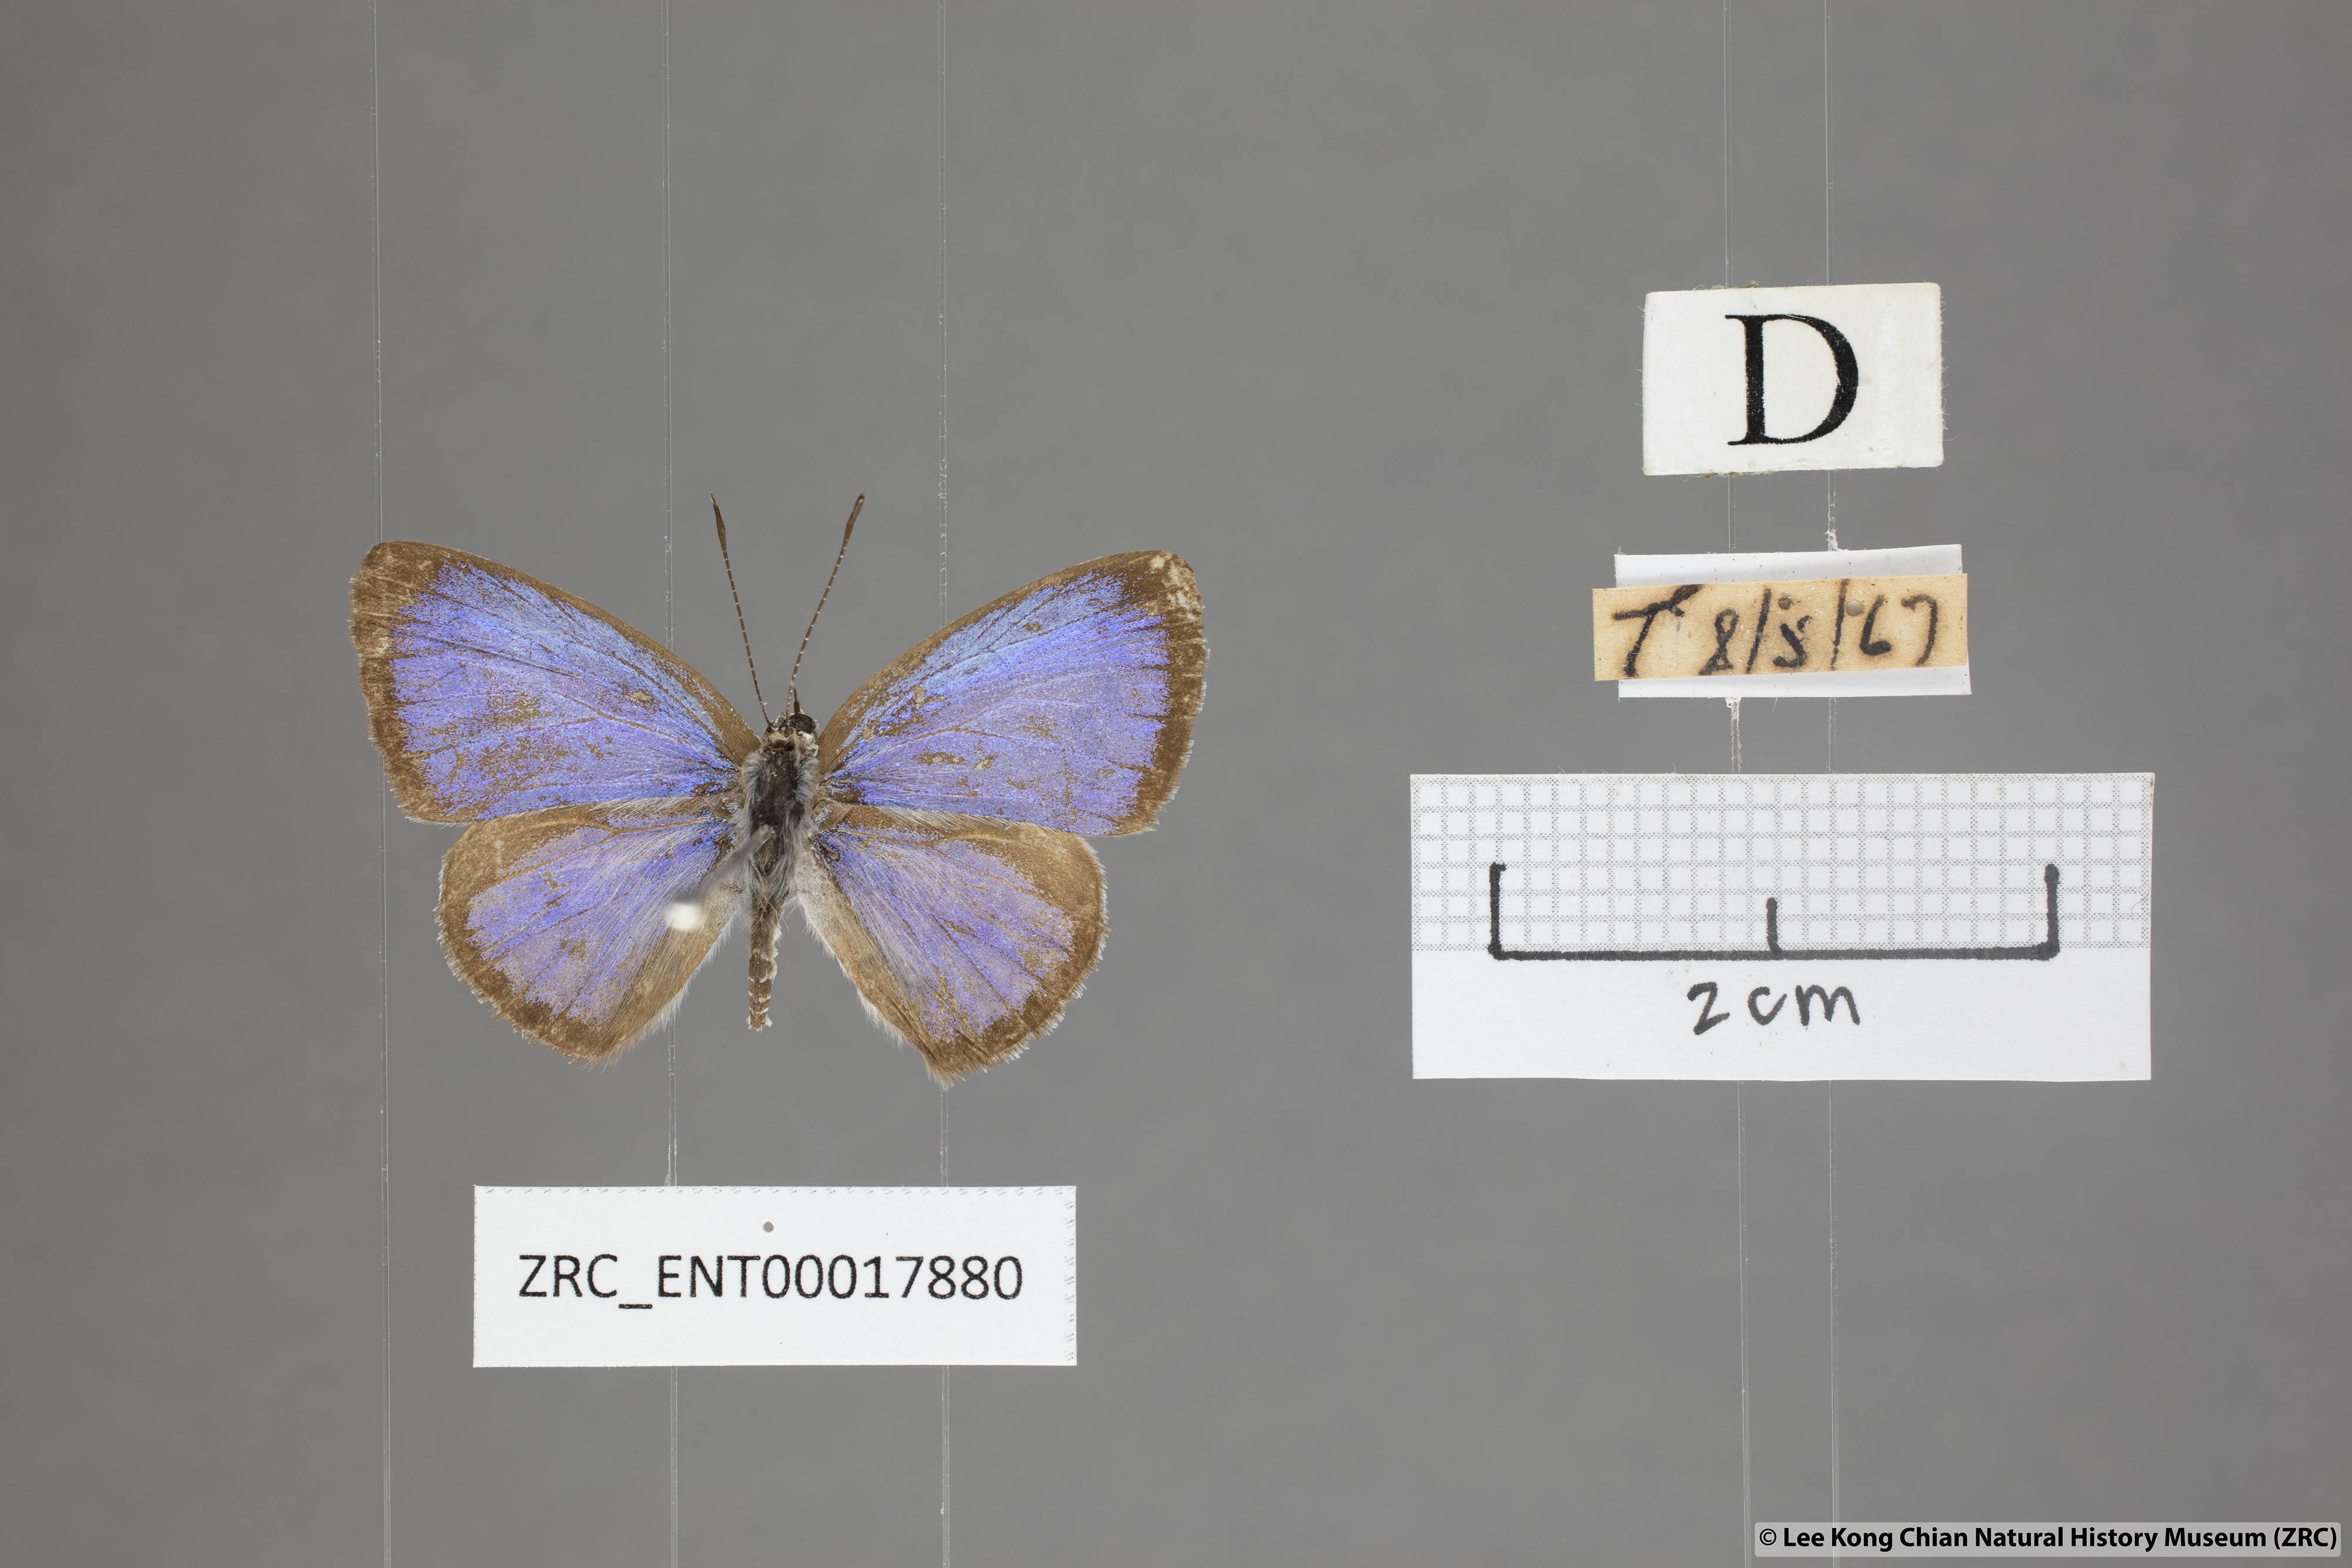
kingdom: Animalia
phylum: Arthropoda
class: Insecta
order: Lepidoptera
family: Lycaenidae
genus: Acytolepis
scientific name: Acytolepis puspa
